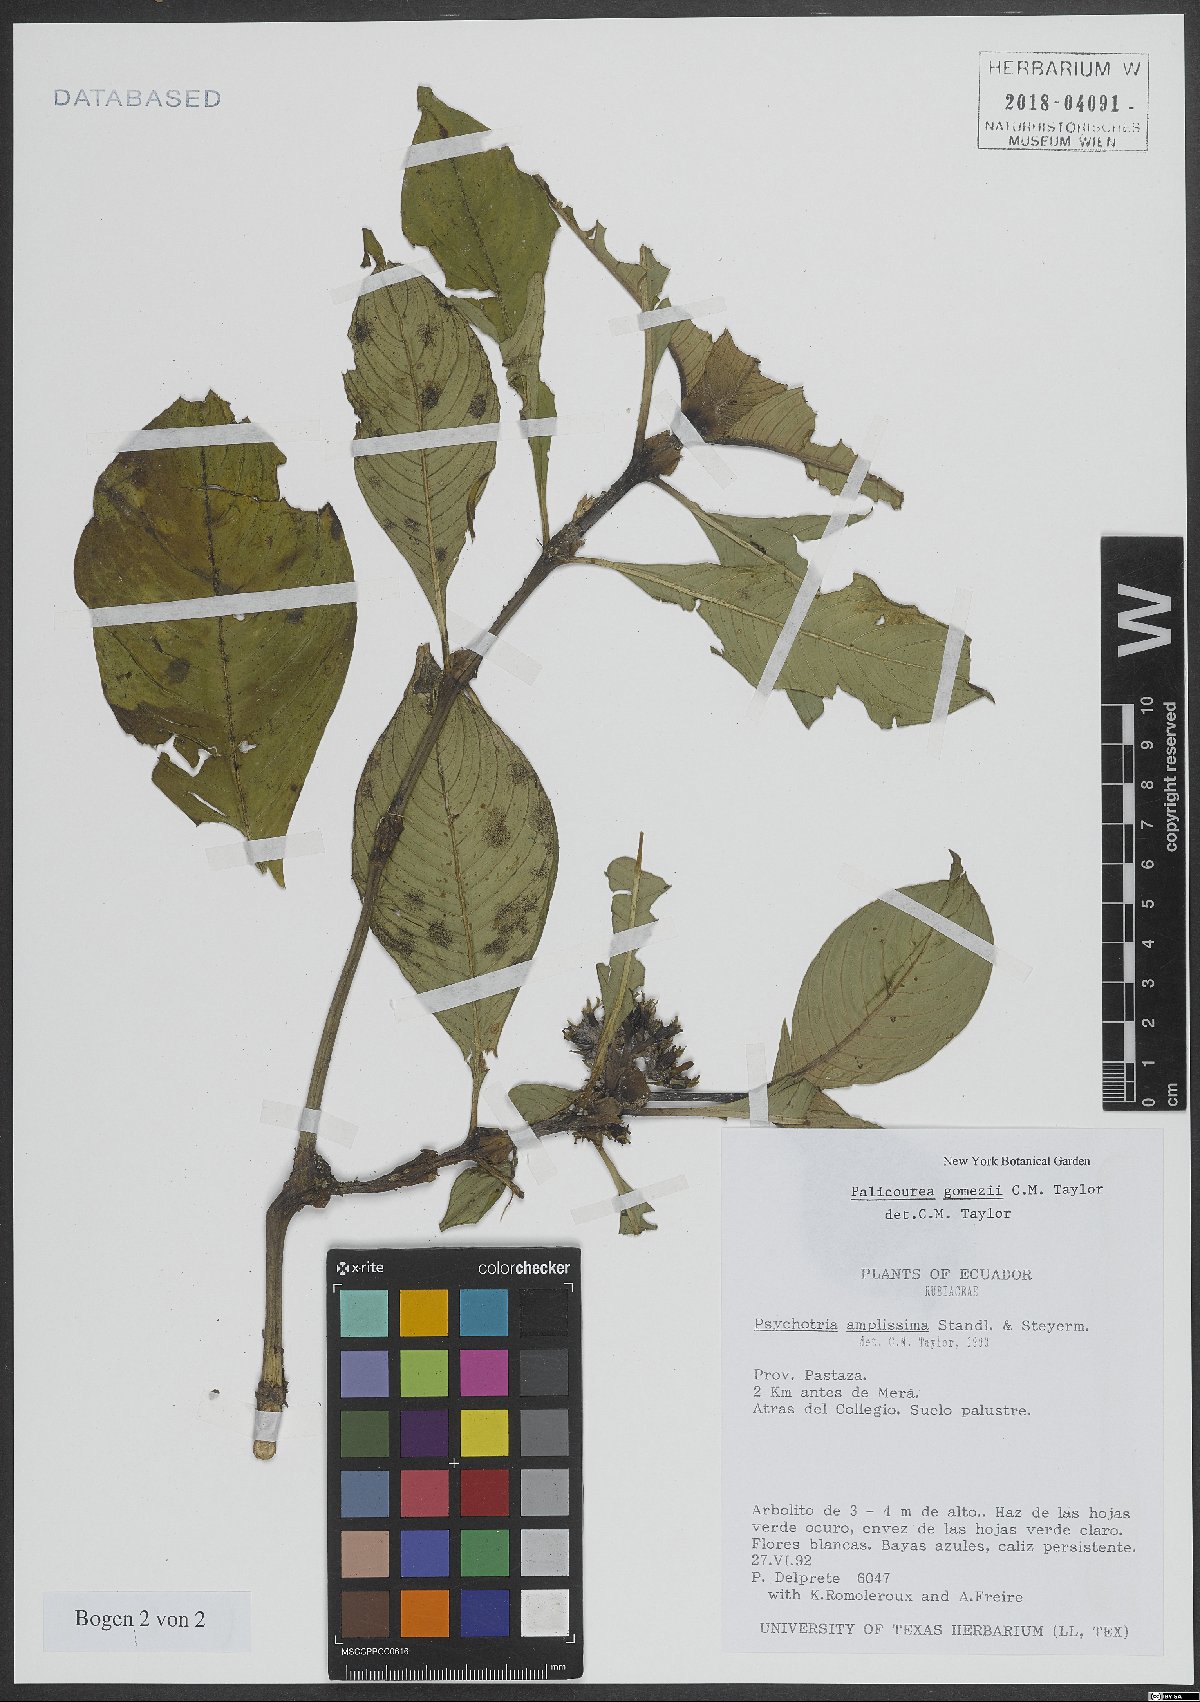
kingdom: Plantae
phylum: Tracheophyta
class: Magnoliopsida
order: Gentianales
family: Rubiaceae
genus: Psychotria
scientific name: Psychotria amplissima
